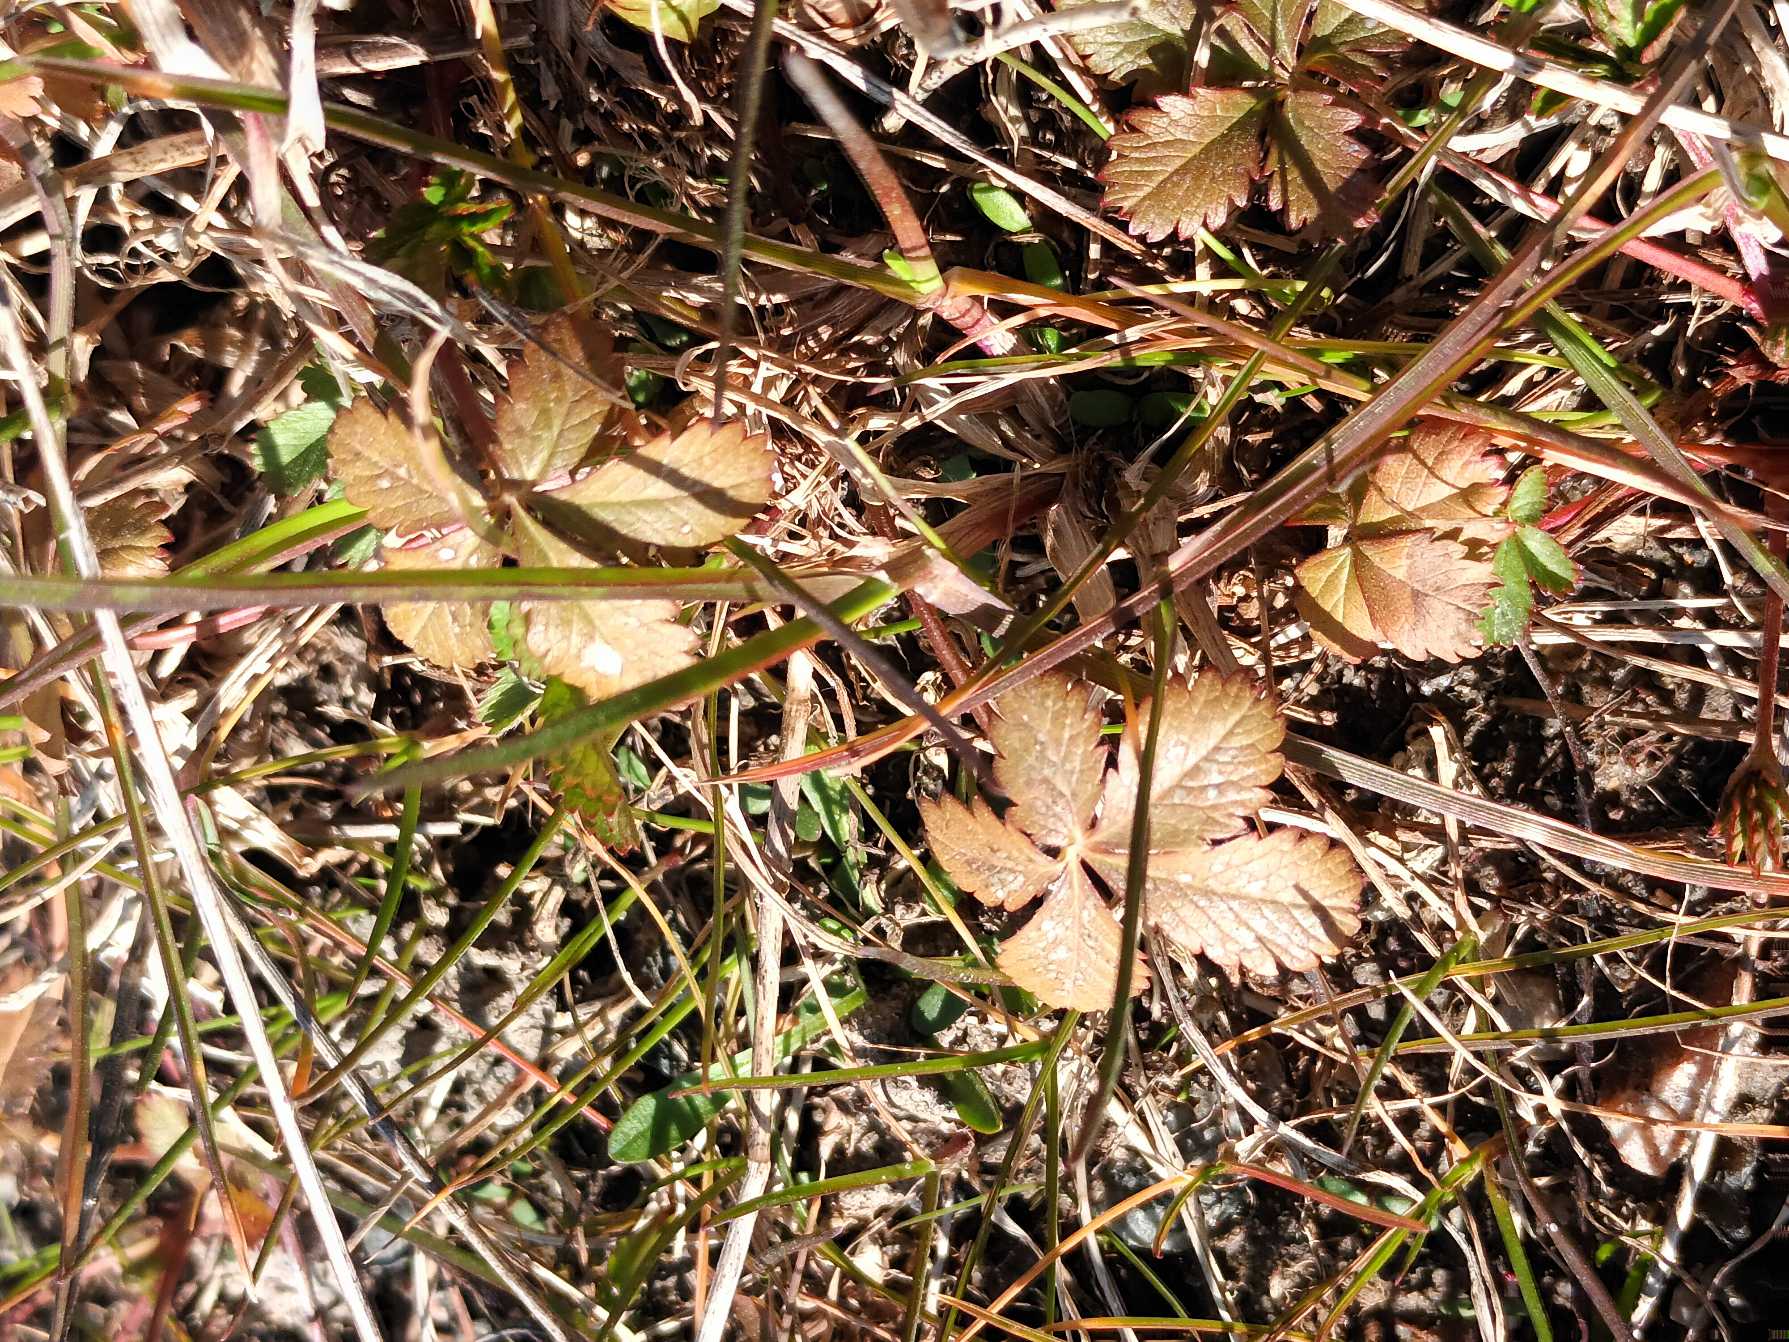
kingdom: Plantae
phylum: Tracheophyta
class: Magnoliopsida
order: Rosales
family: Rosaceae
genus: Potentilla
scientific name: Potentilla reptans
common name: Krybende potentil
